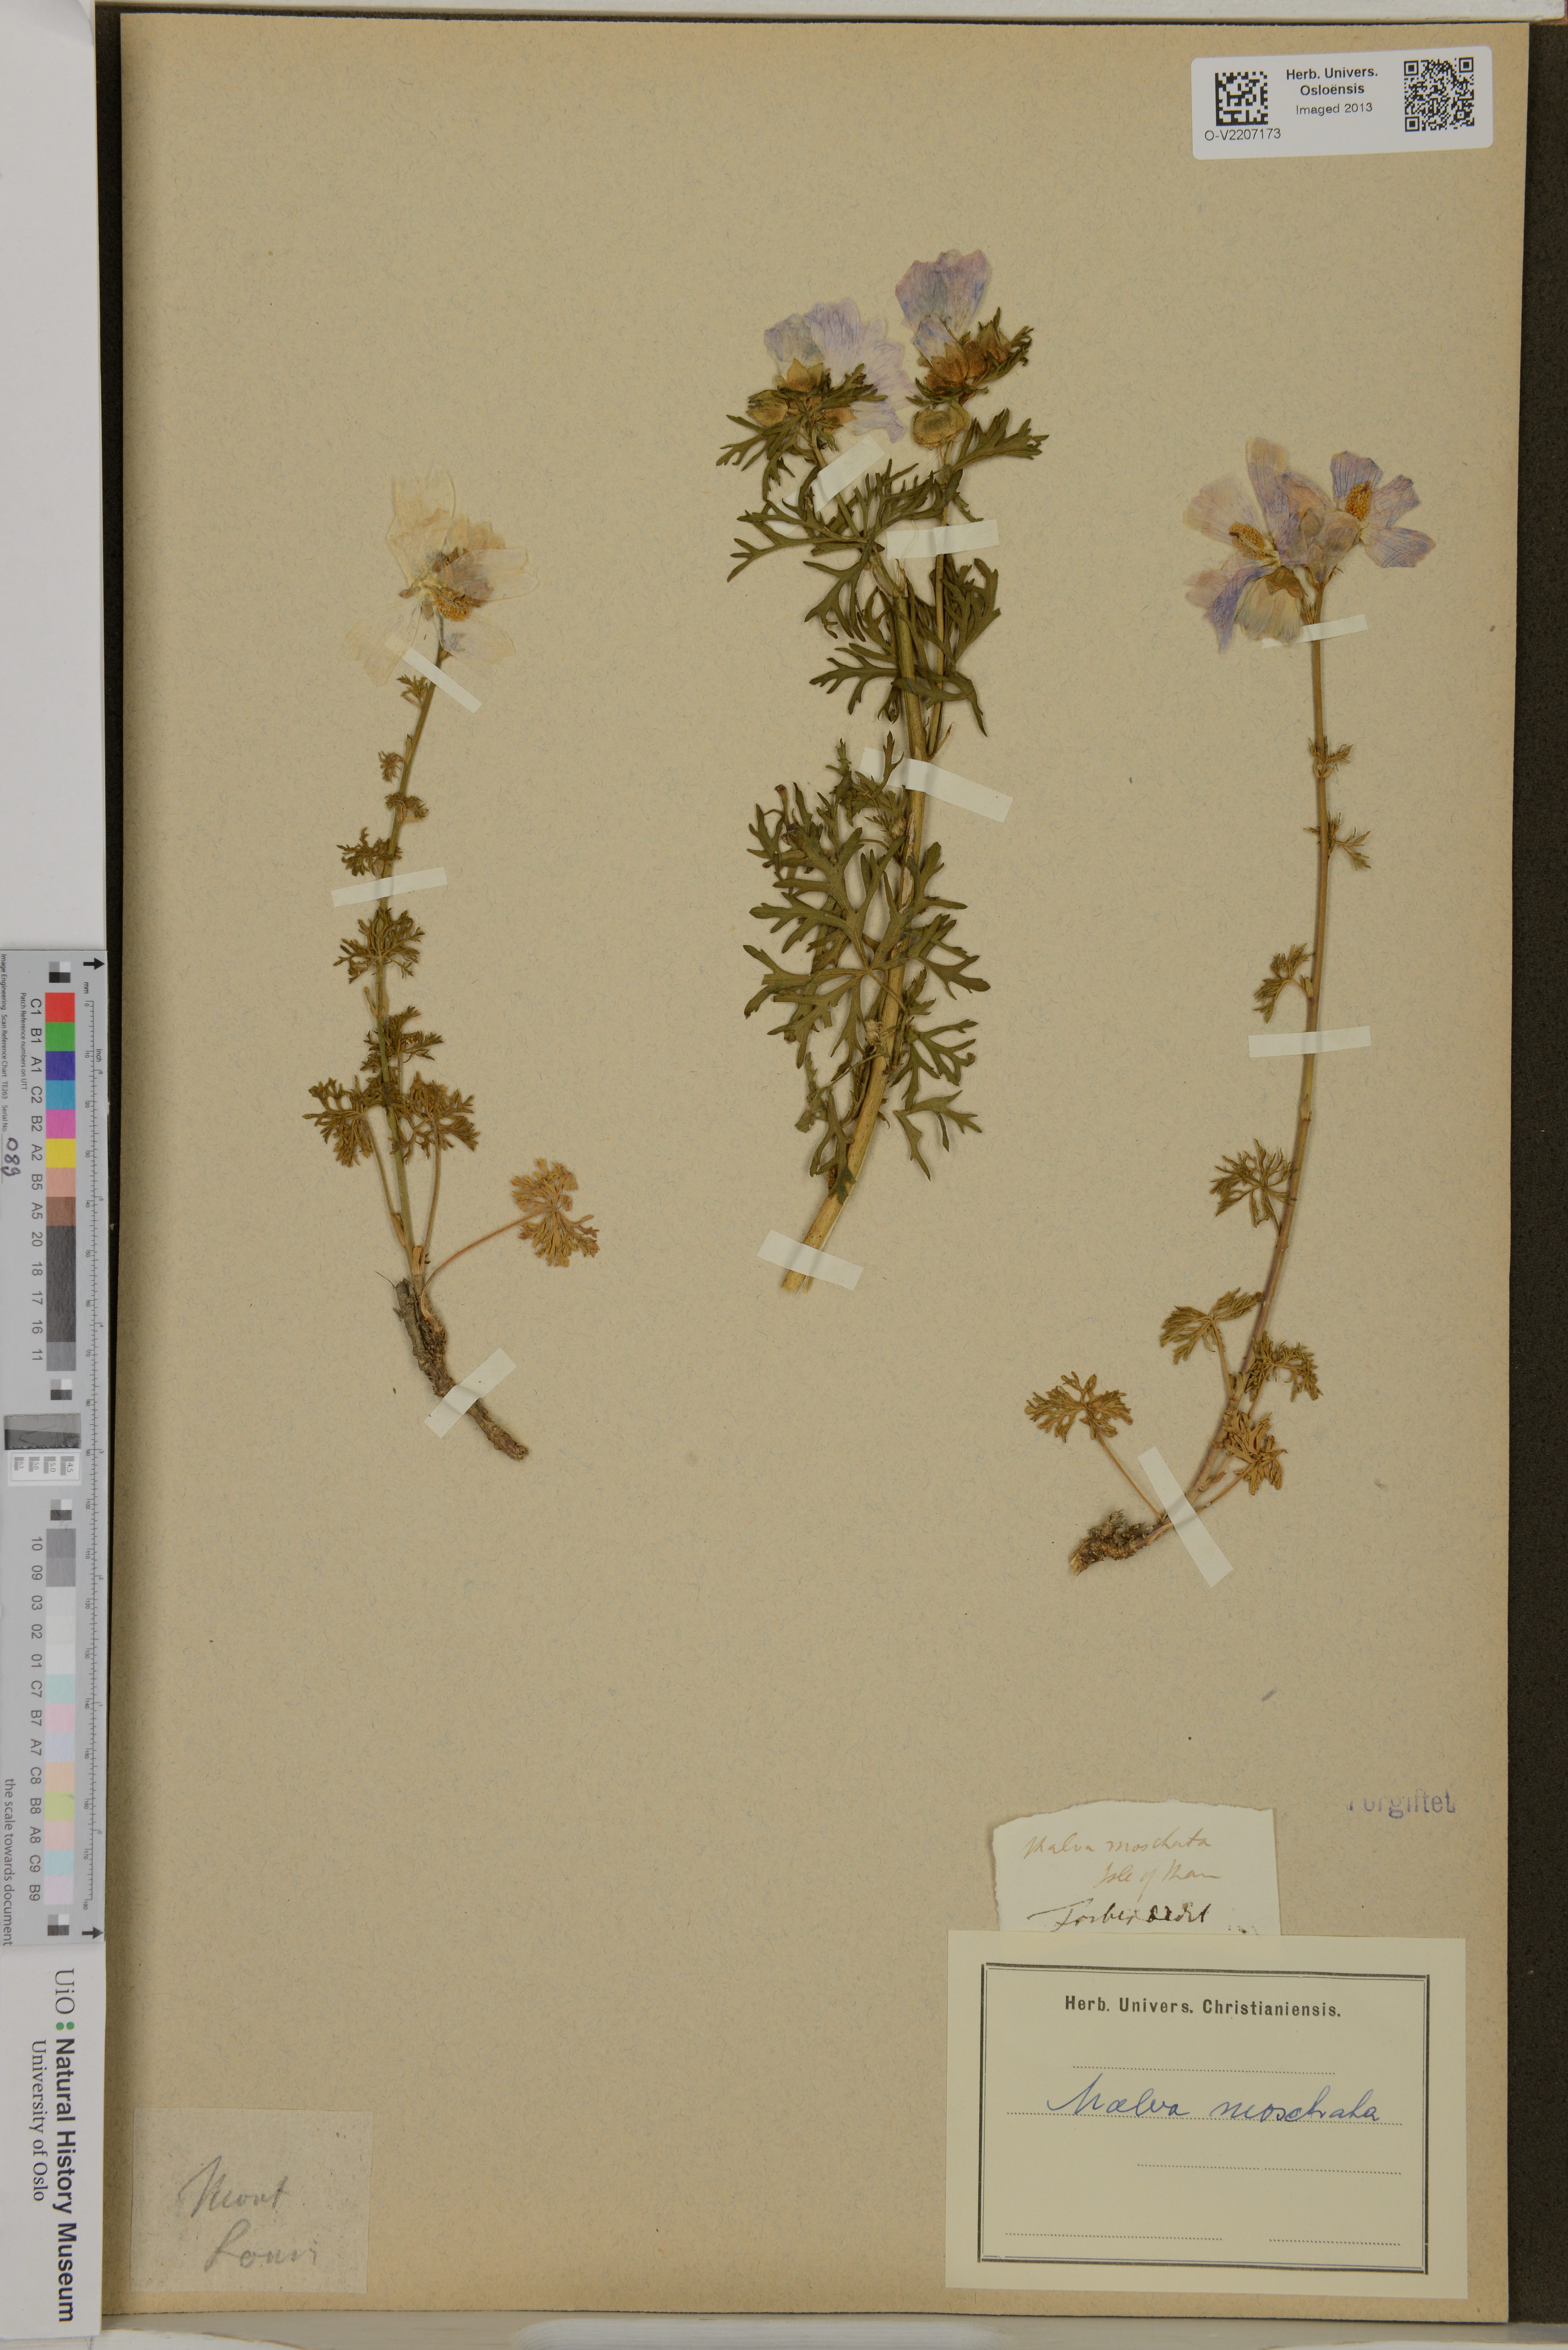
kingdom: Plantae
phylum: Tracheophyta
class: Magnoliopsida
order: Malvales
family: Malvaceae
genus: Malva
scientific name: Malva moschata
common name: Musk mallow
